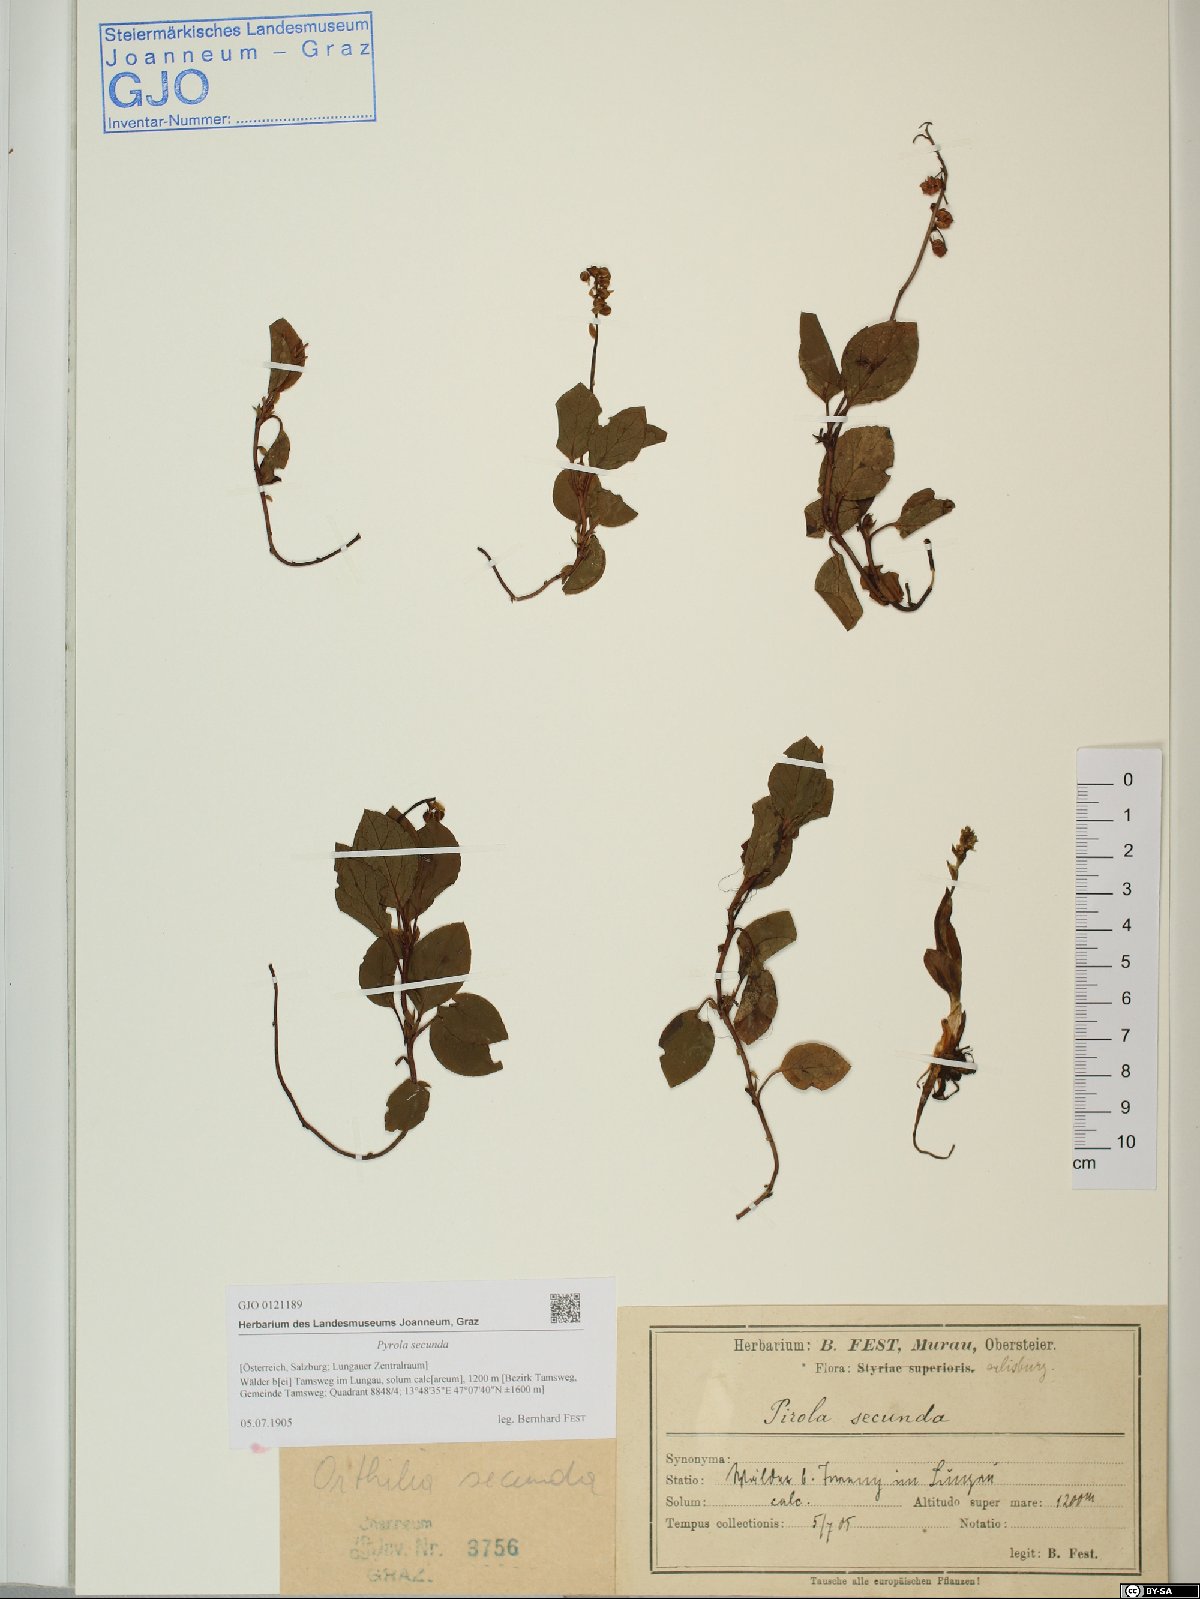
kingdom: Plantae
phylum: Tracheophyta
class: Magnoliopsida
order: Ericales
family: Ericaceae
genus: Orthilia
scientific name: Orthilia secunda
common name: One-sided orthilia
